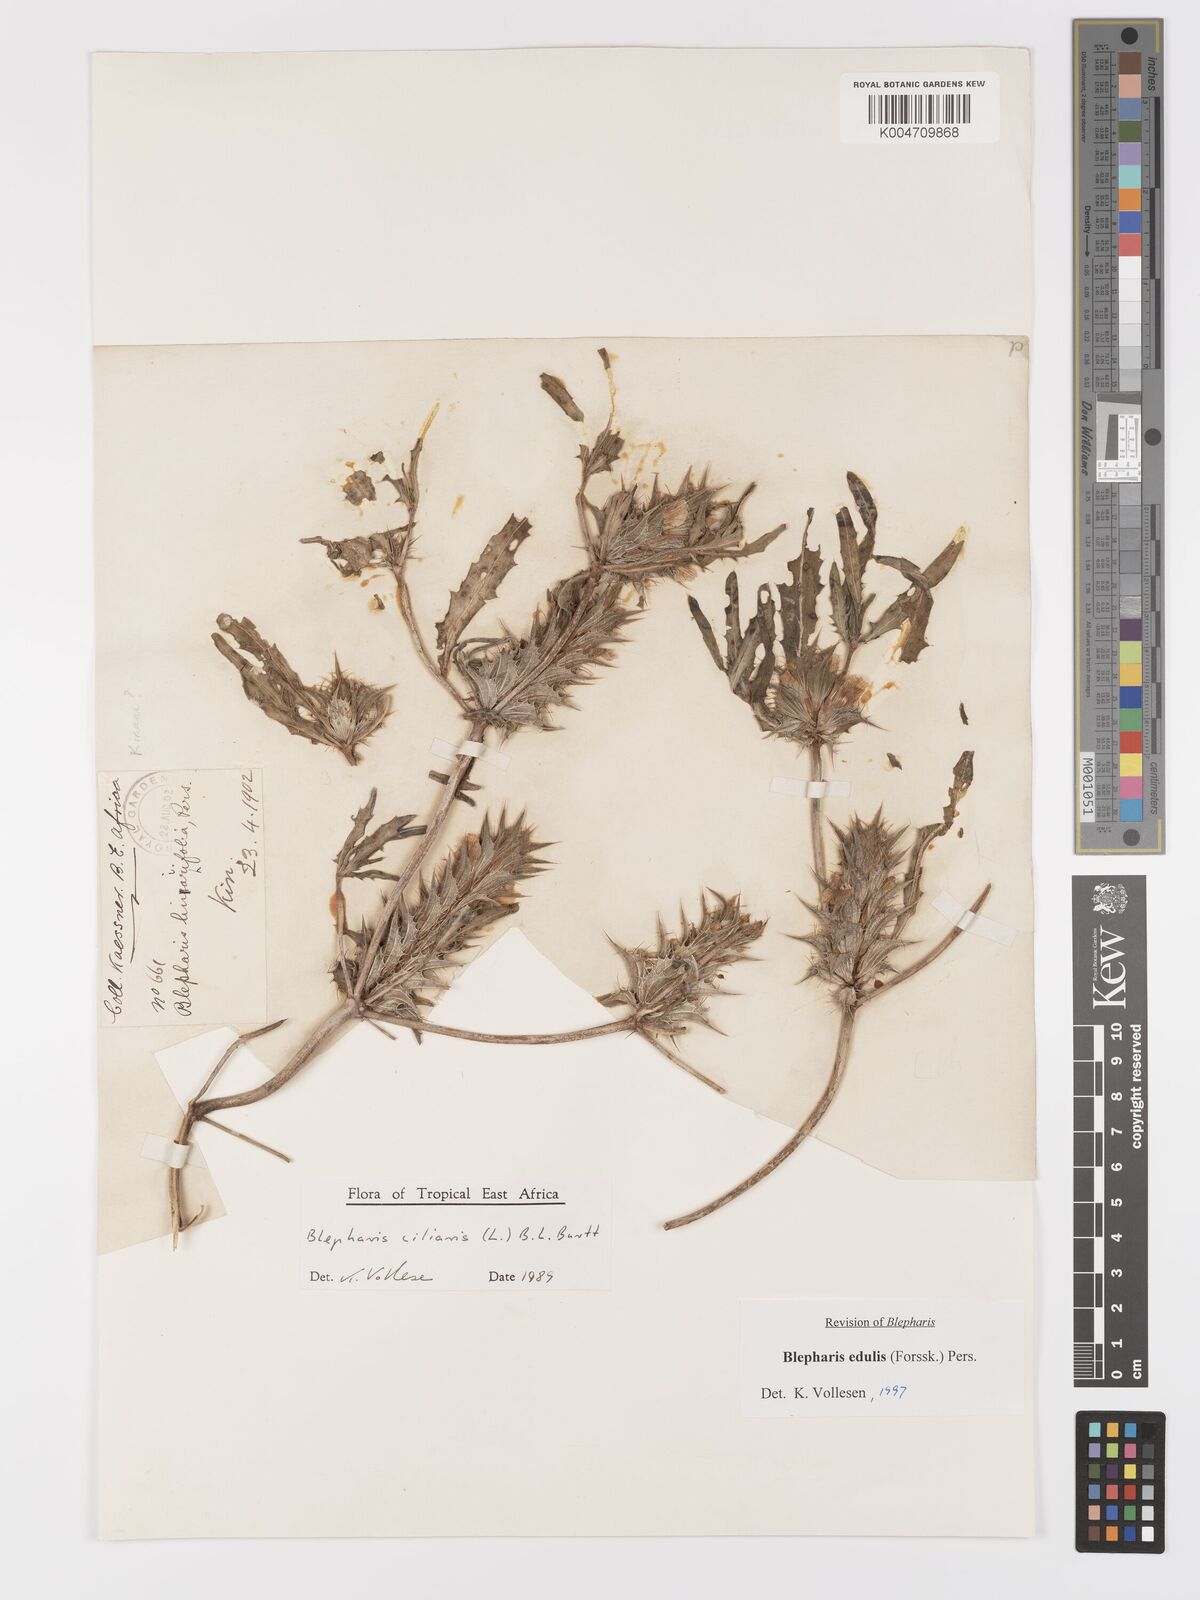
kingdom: Plantae
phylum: Tracheophyta
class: Magnoliopsida
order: Lamiales
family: Acanthaceae
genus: Blepharis
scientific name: Blepharis edulis
